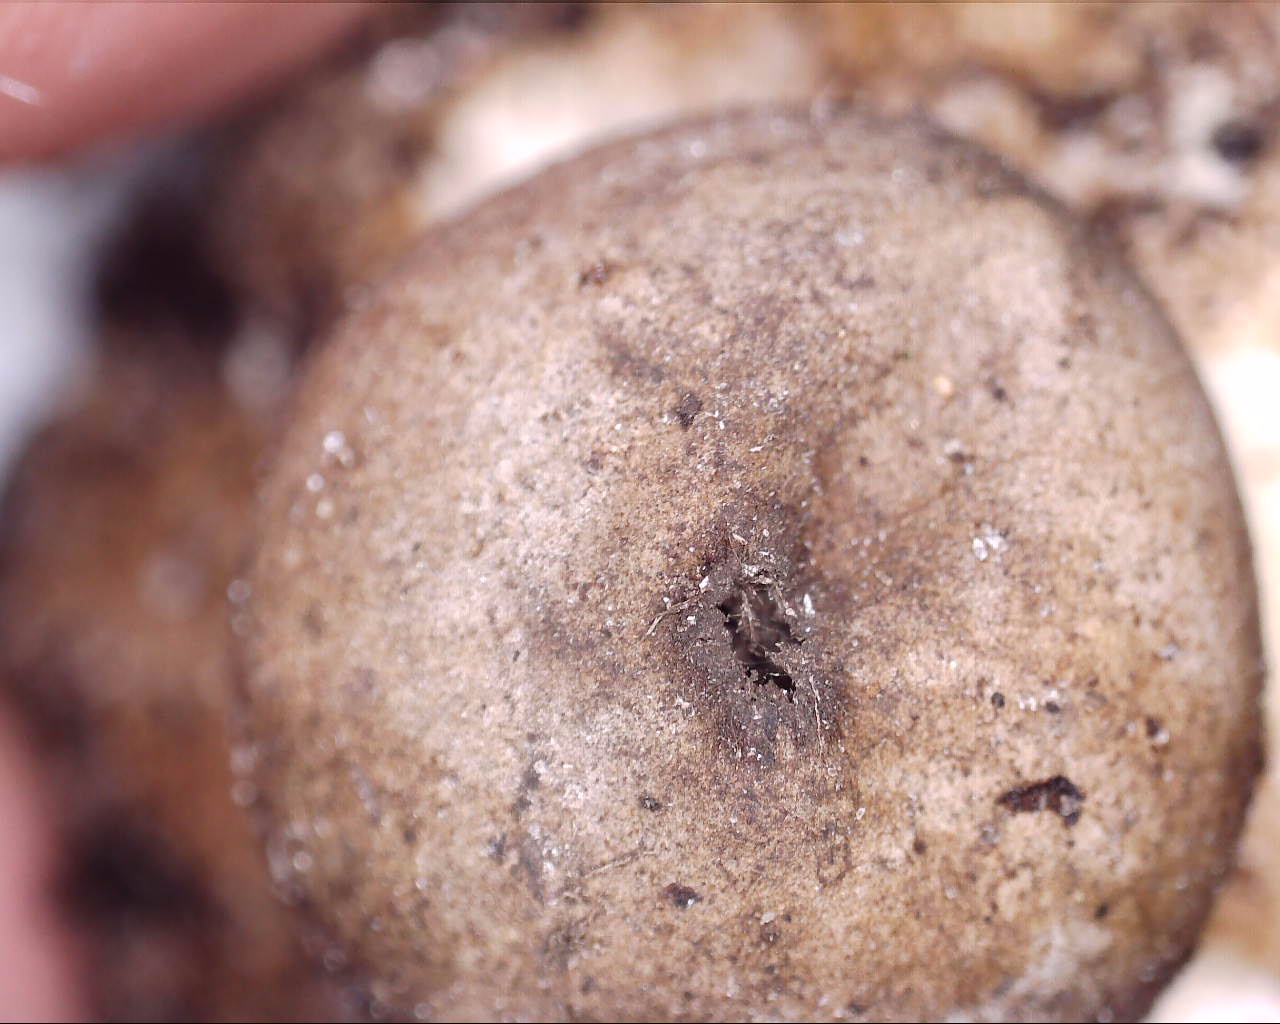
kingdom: Fungi
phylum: Basidiomycota
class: Agaricomycetes
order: Geastrales
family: Geastraceae
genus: Geastrum
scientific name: Geastrum
